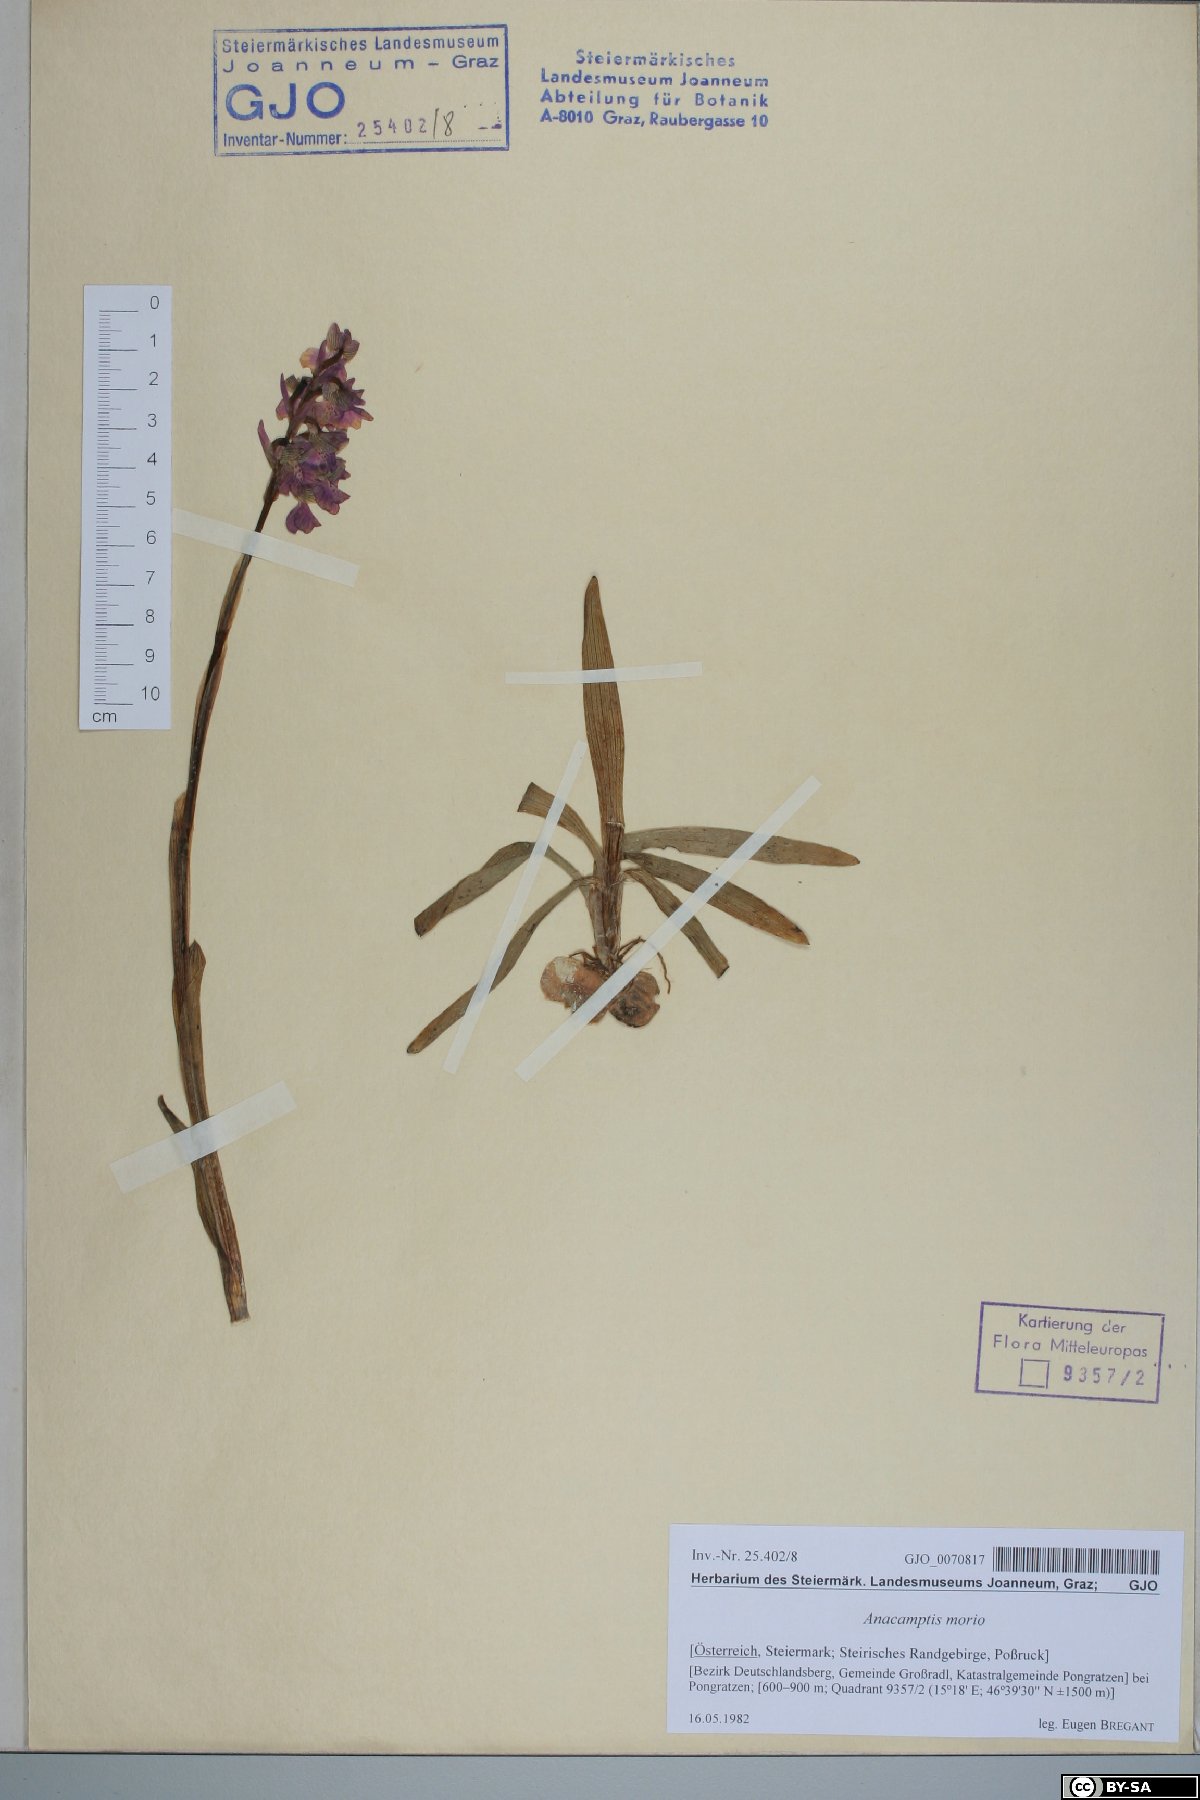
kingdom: Plantae
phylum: Tracheophyta
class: Liliopsida
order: Asparagales
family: Orchidaceae
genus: Anacamptis
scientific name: Anacamptis morio
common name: Green-winged orchid
